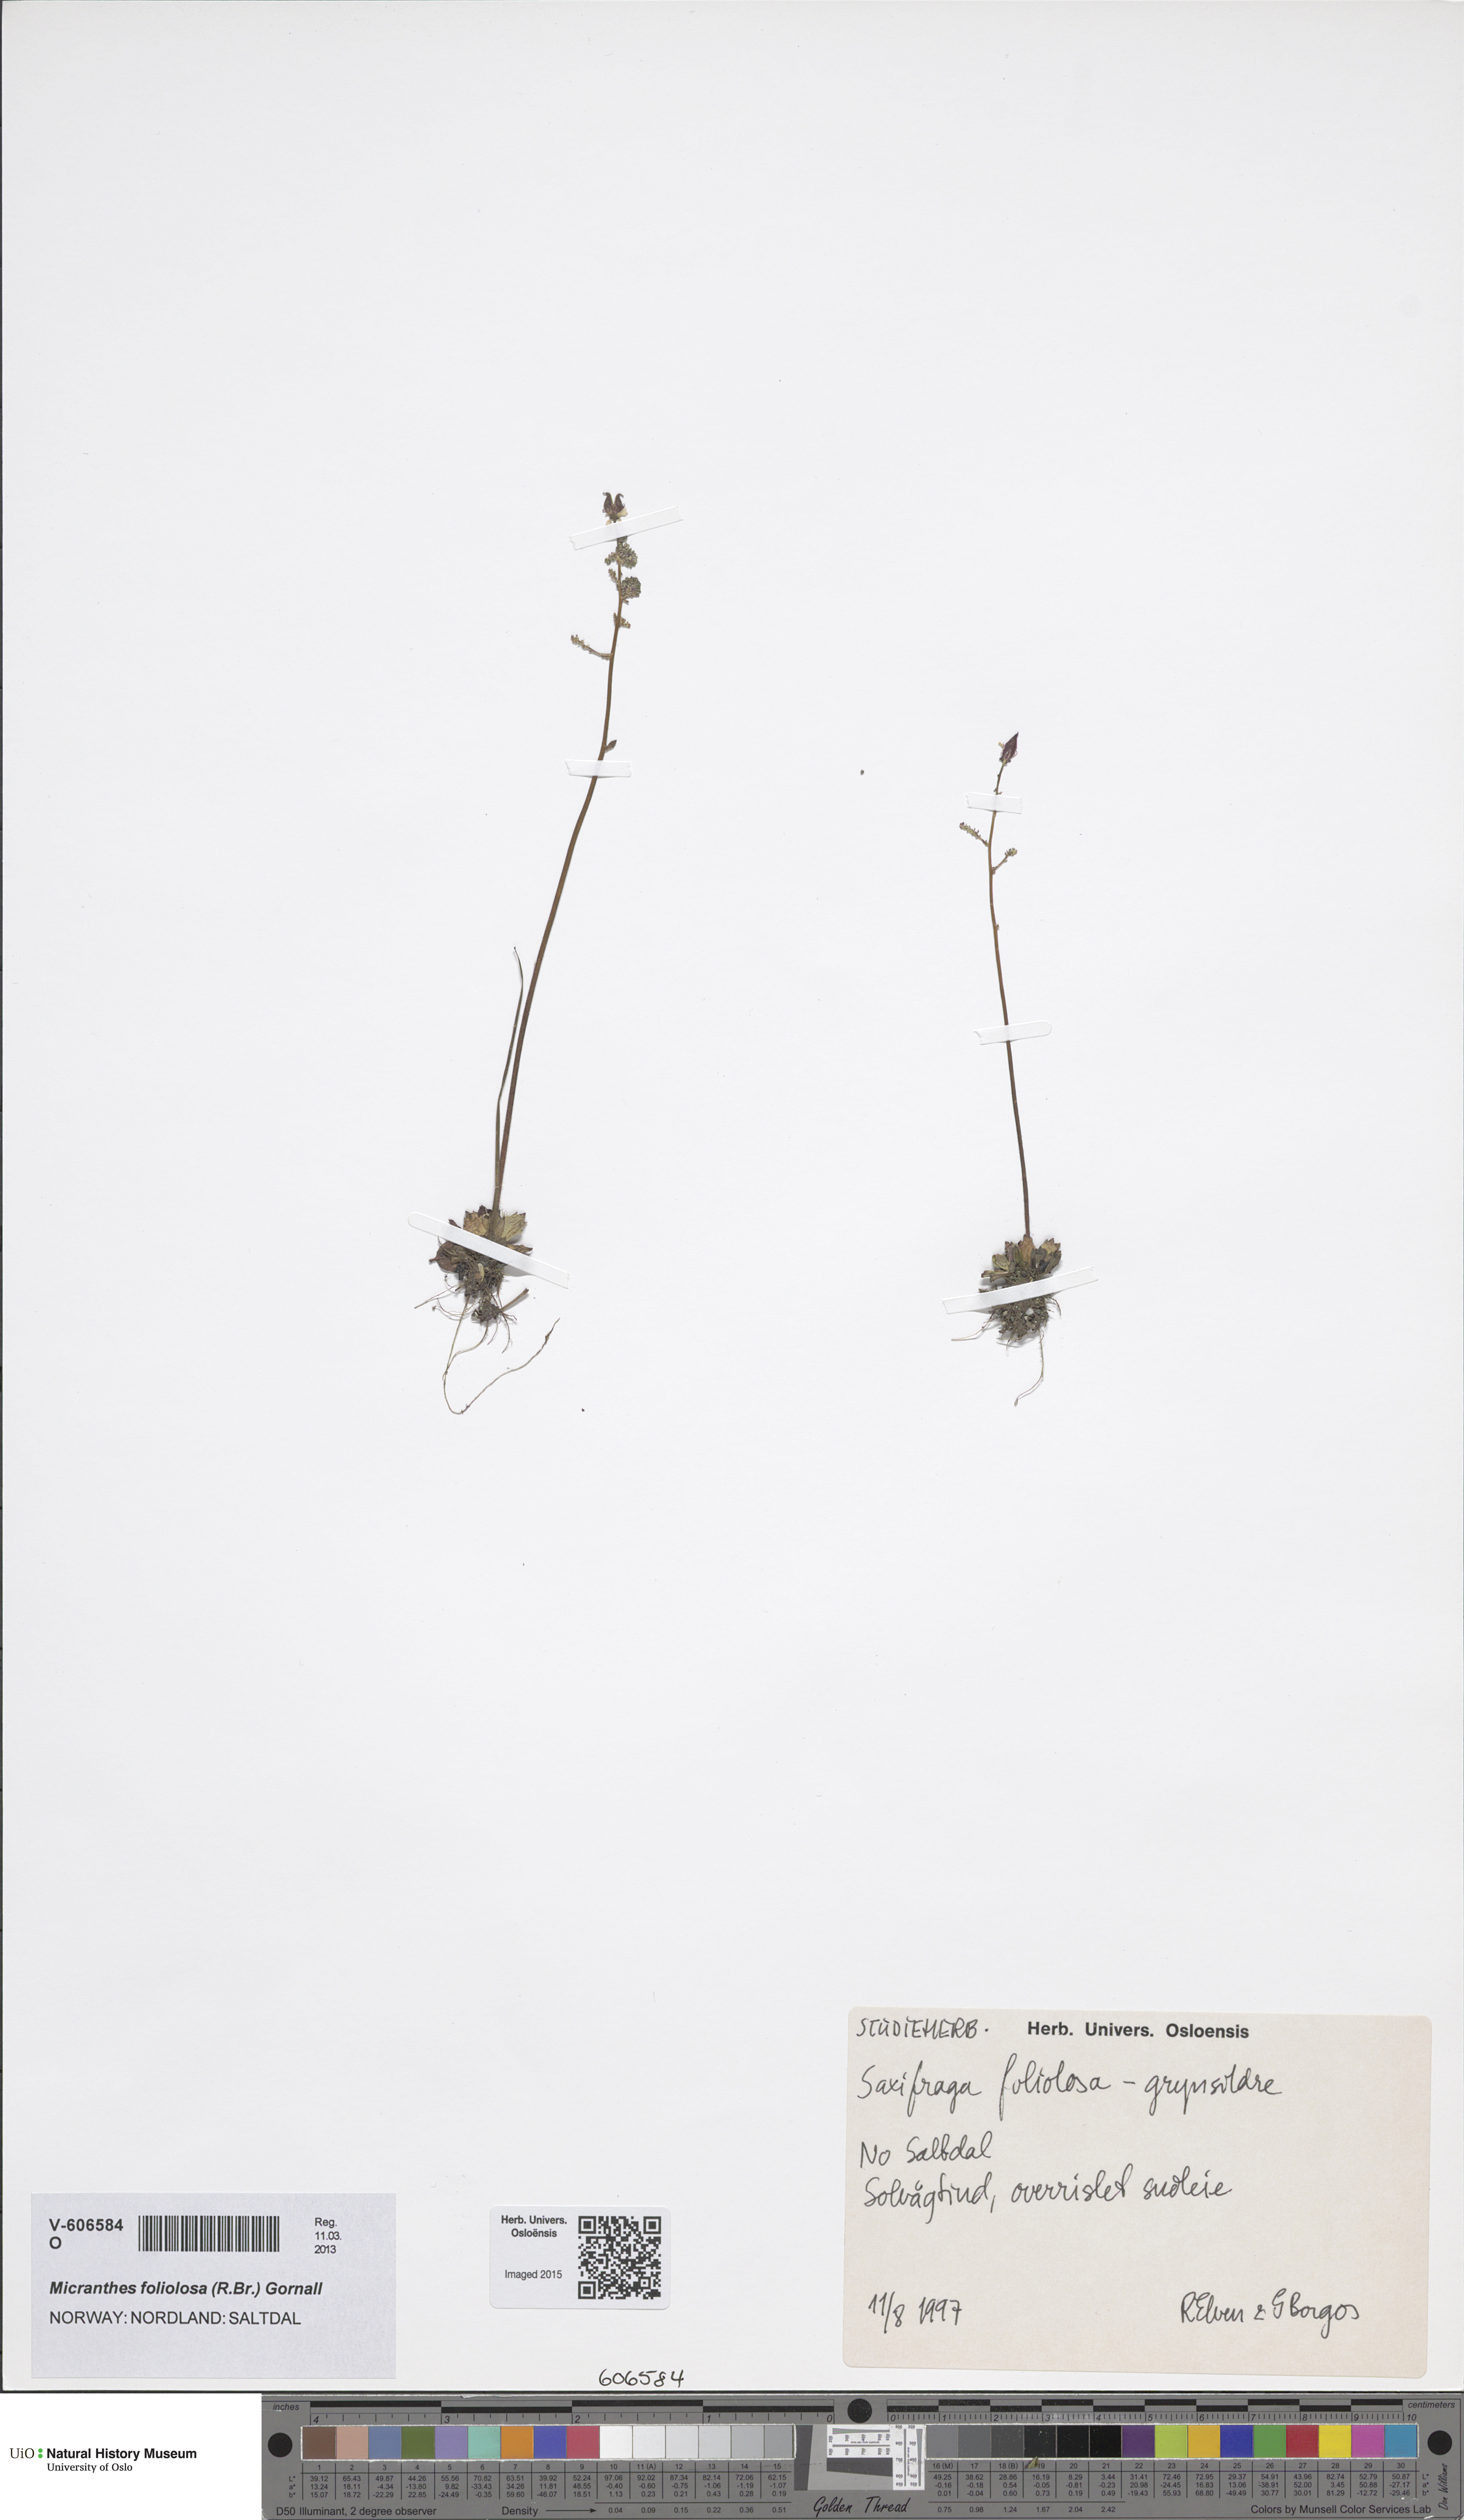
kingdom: Plantae
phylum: Tracheophyta
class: Magnoliopsida
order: Saxifragales
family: Saxifragaceae
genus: Micranthes
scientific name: Micranthes foliolosa
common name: Leafystem saxifrage
